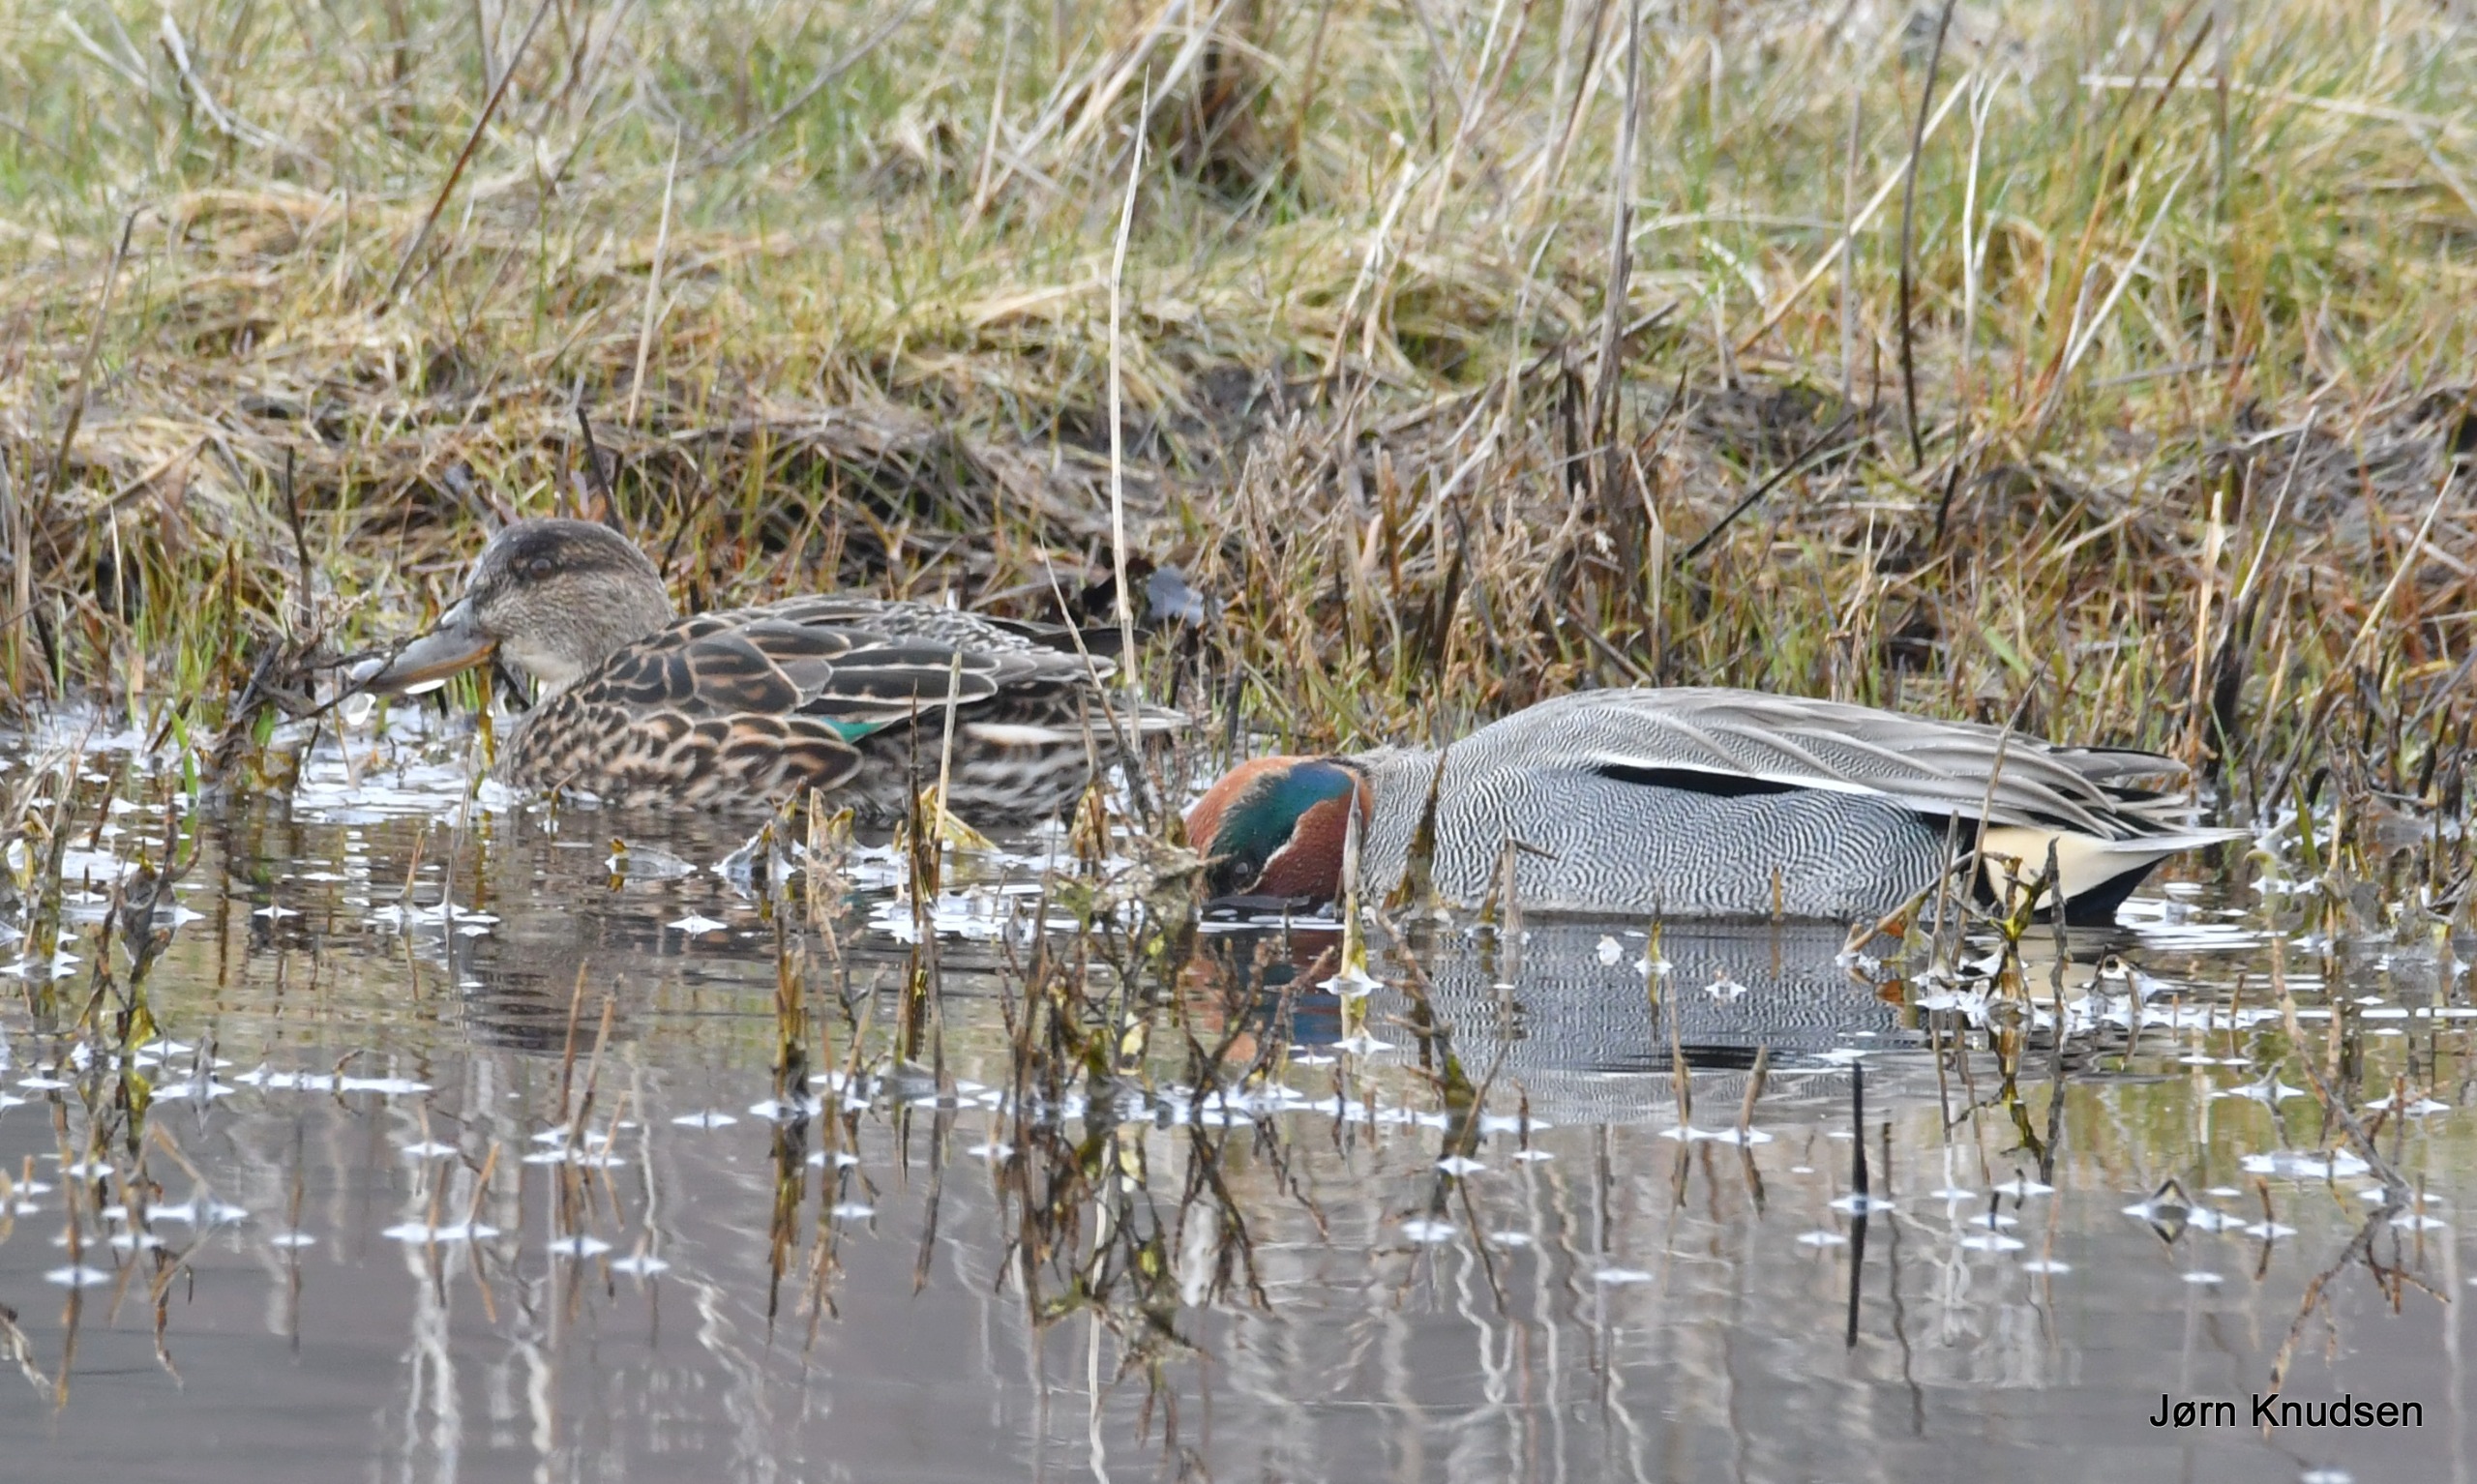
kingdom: Animalia
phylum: Chordata
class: Aves
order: Anseriformes
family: Anatidae
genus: Anas
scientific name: Anas crecca
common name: Krikand
